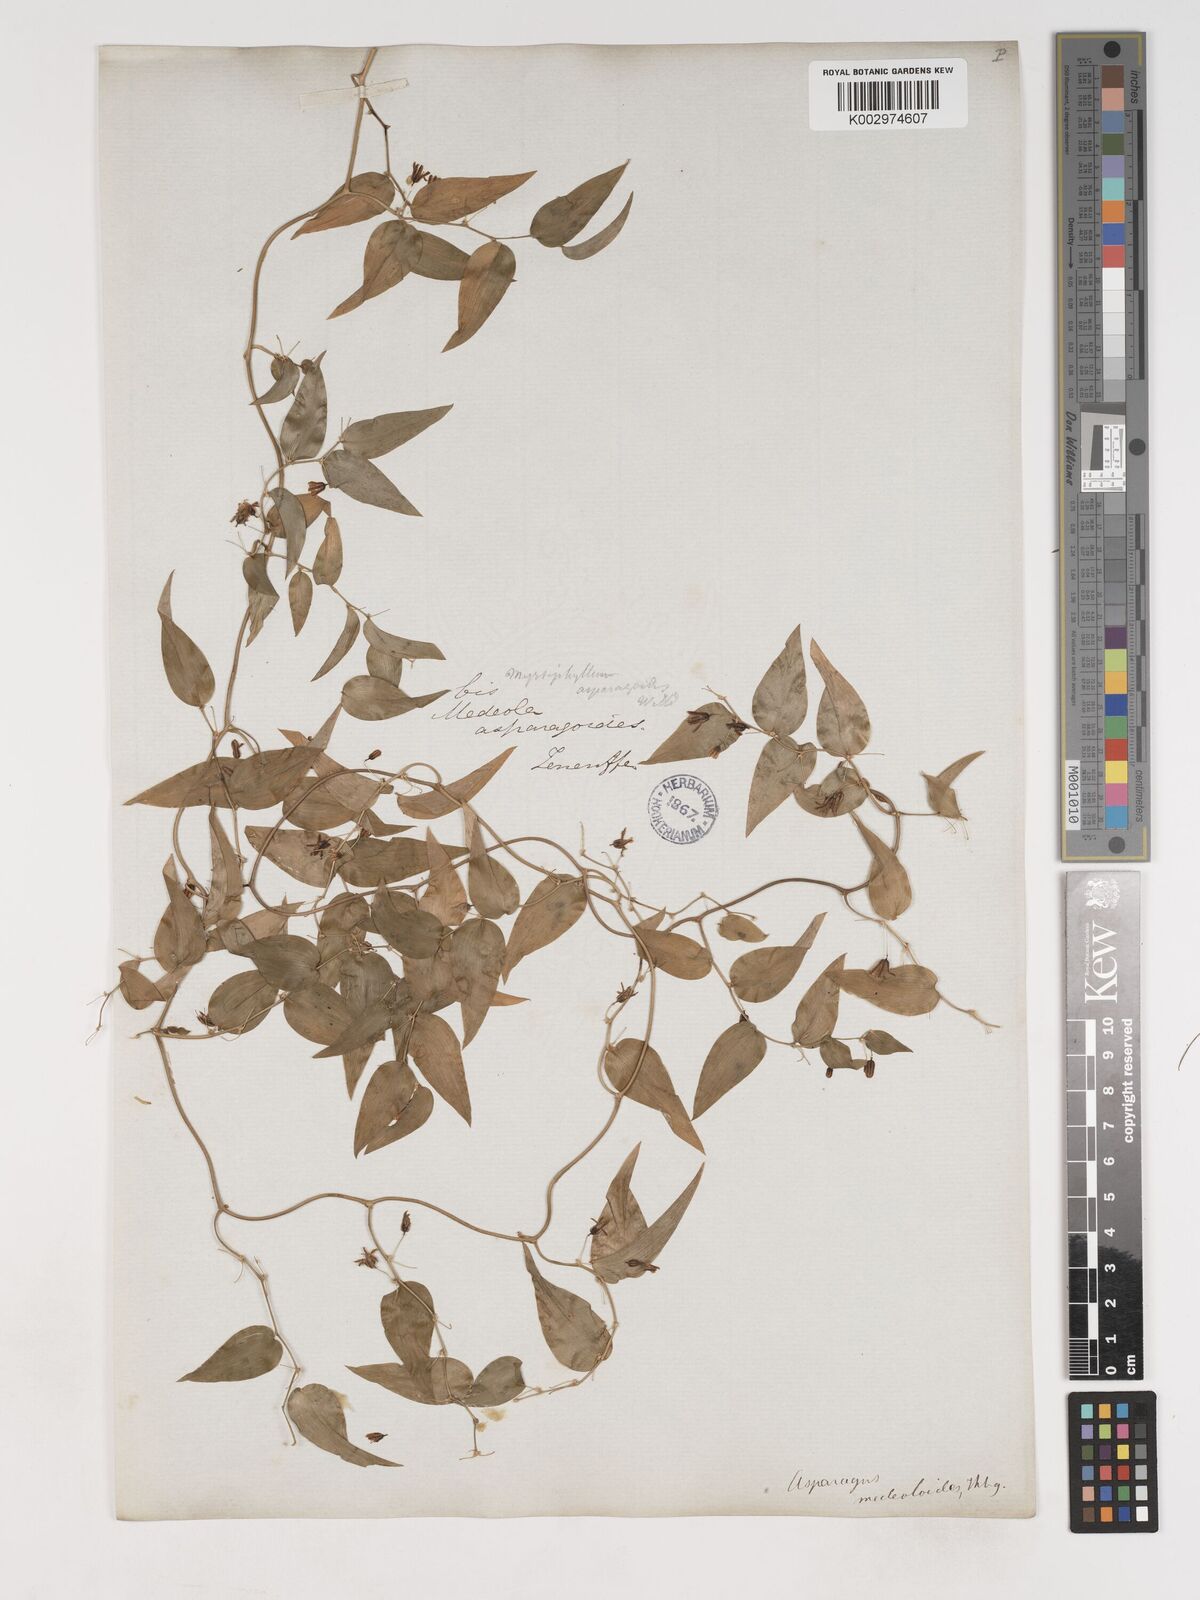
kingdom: Plantae
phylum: Tracheophyta
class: Liliopsida
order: Asparagales
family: Asparagaceae
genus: Asparagus
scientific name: Asparagus asparagoides
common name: African asparagus fern
